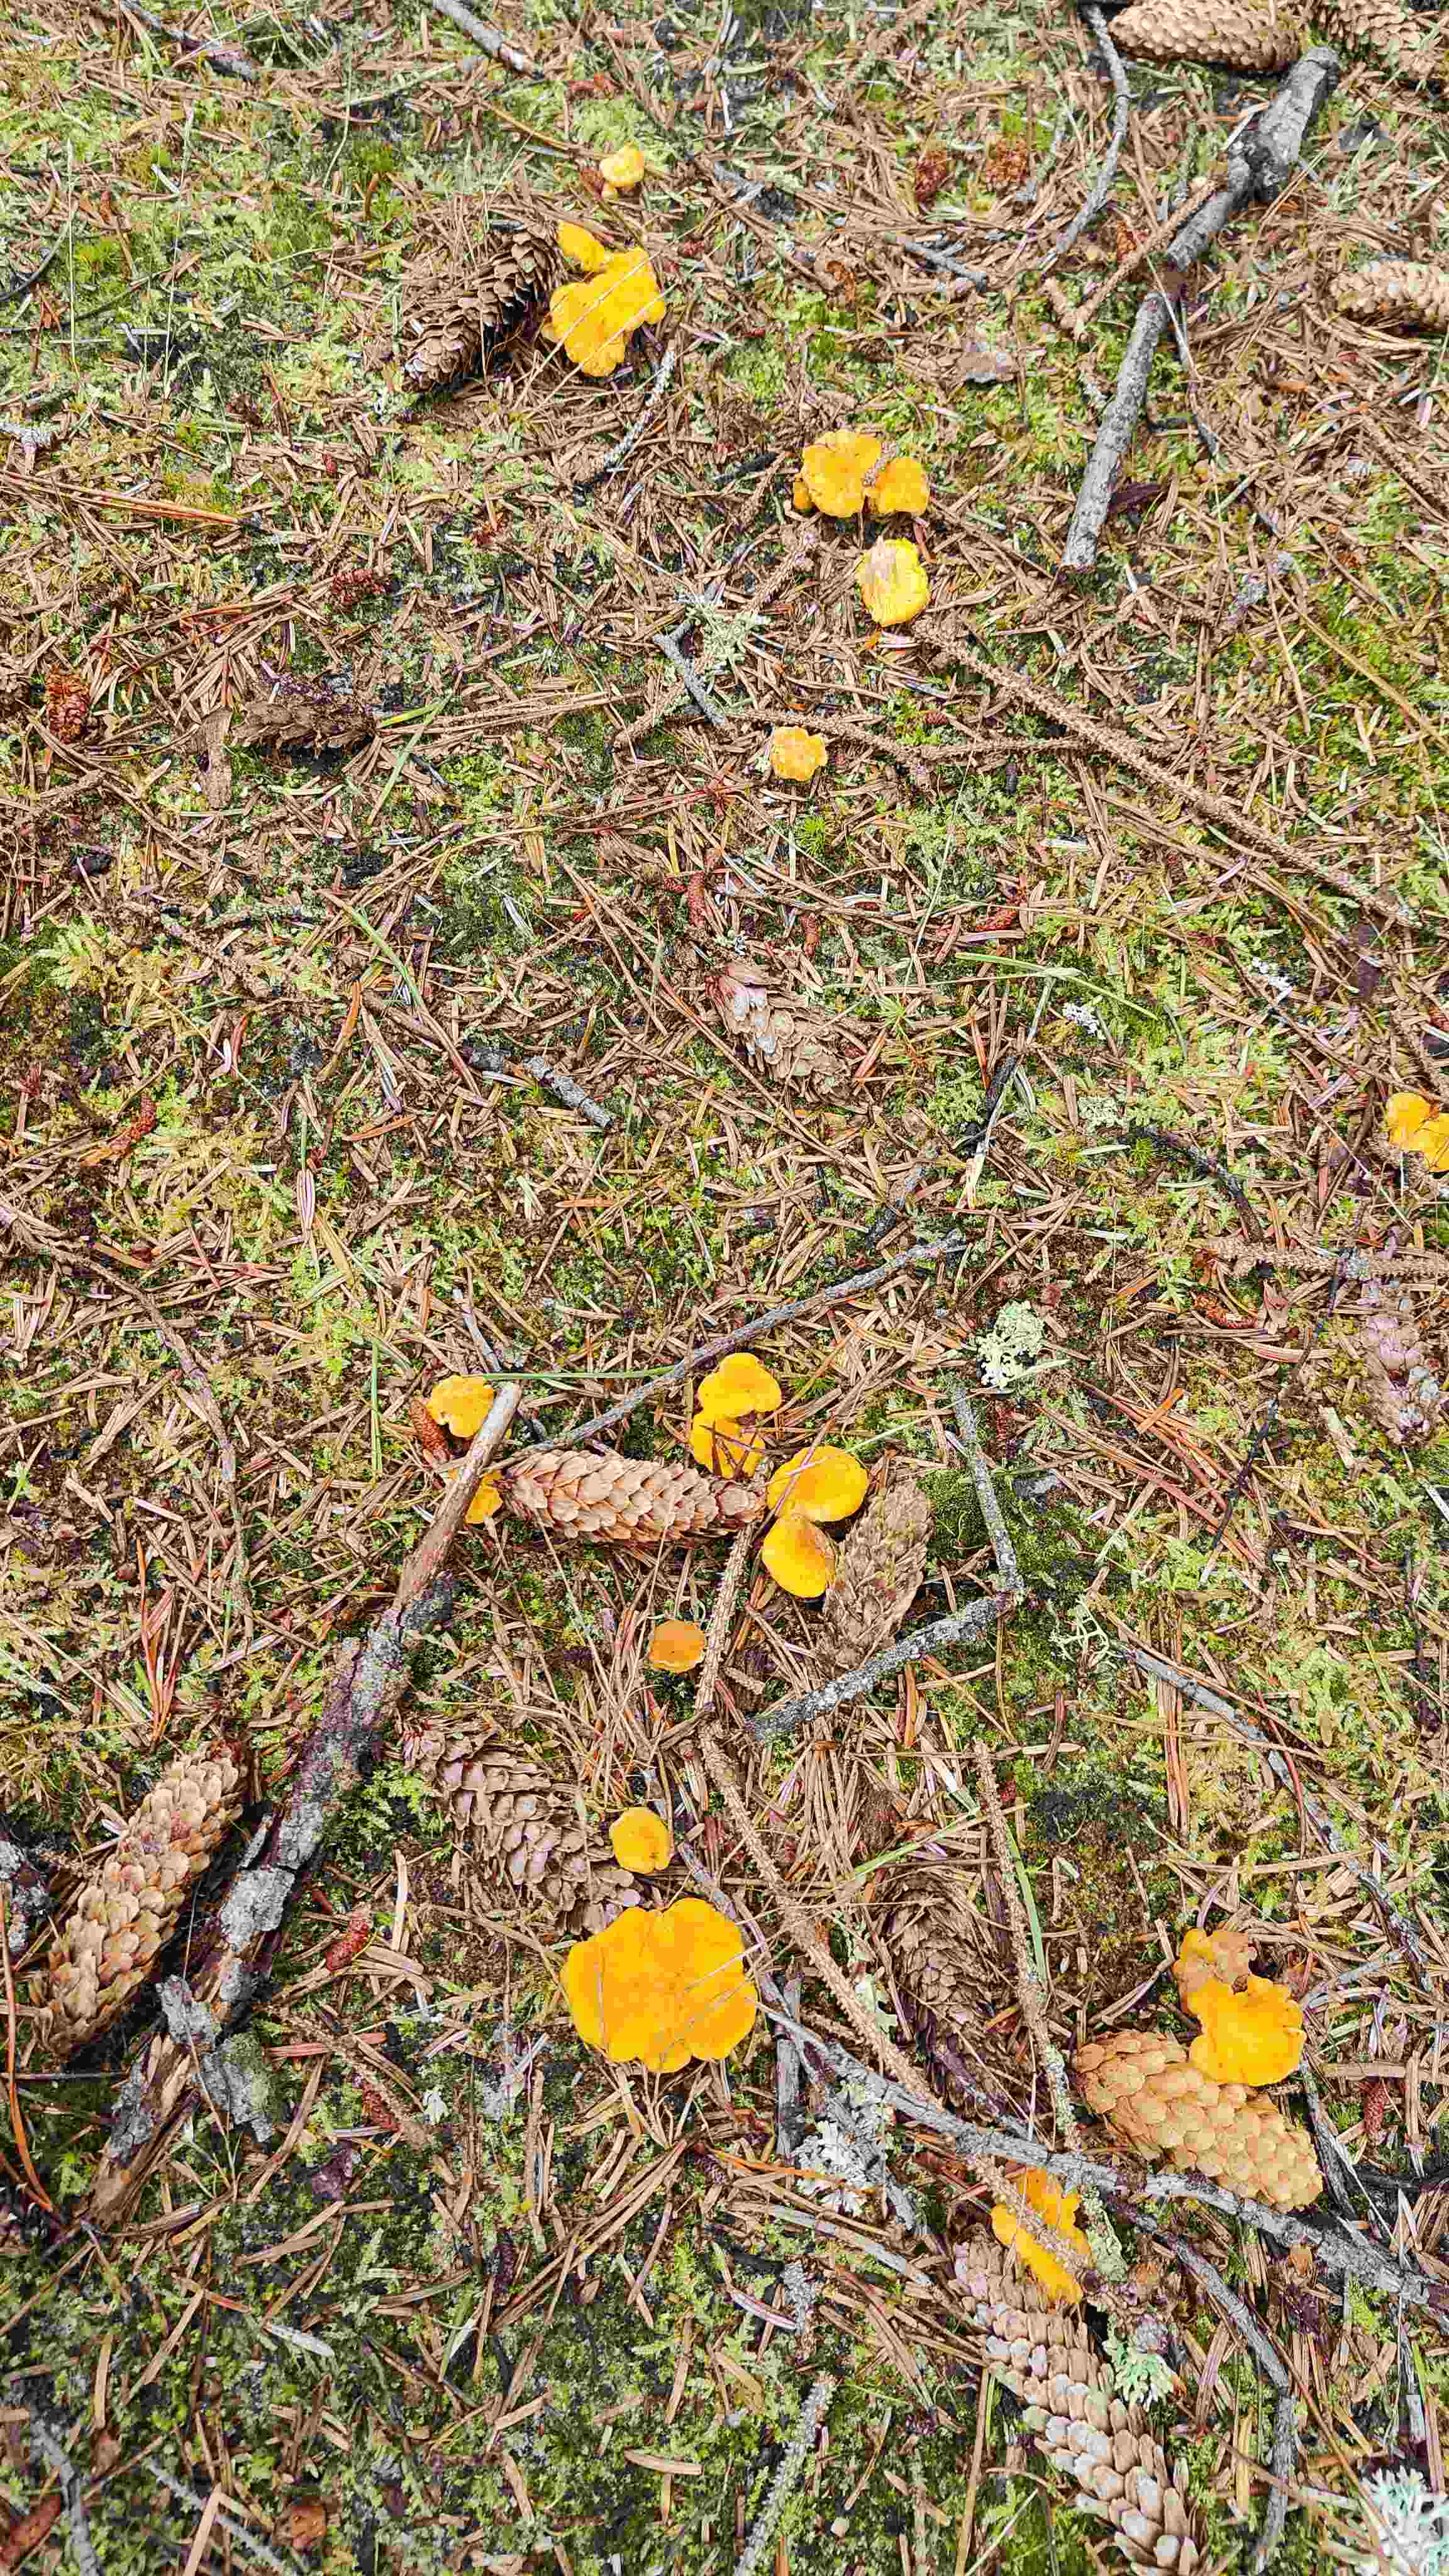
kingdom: Fungi
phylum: Basidiomycota
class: Agaricomycetes
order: Cantharellales
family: Hydnaceae
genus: Cantharellus
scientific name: Cantharellus cibarius
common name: almindelig kantarel
